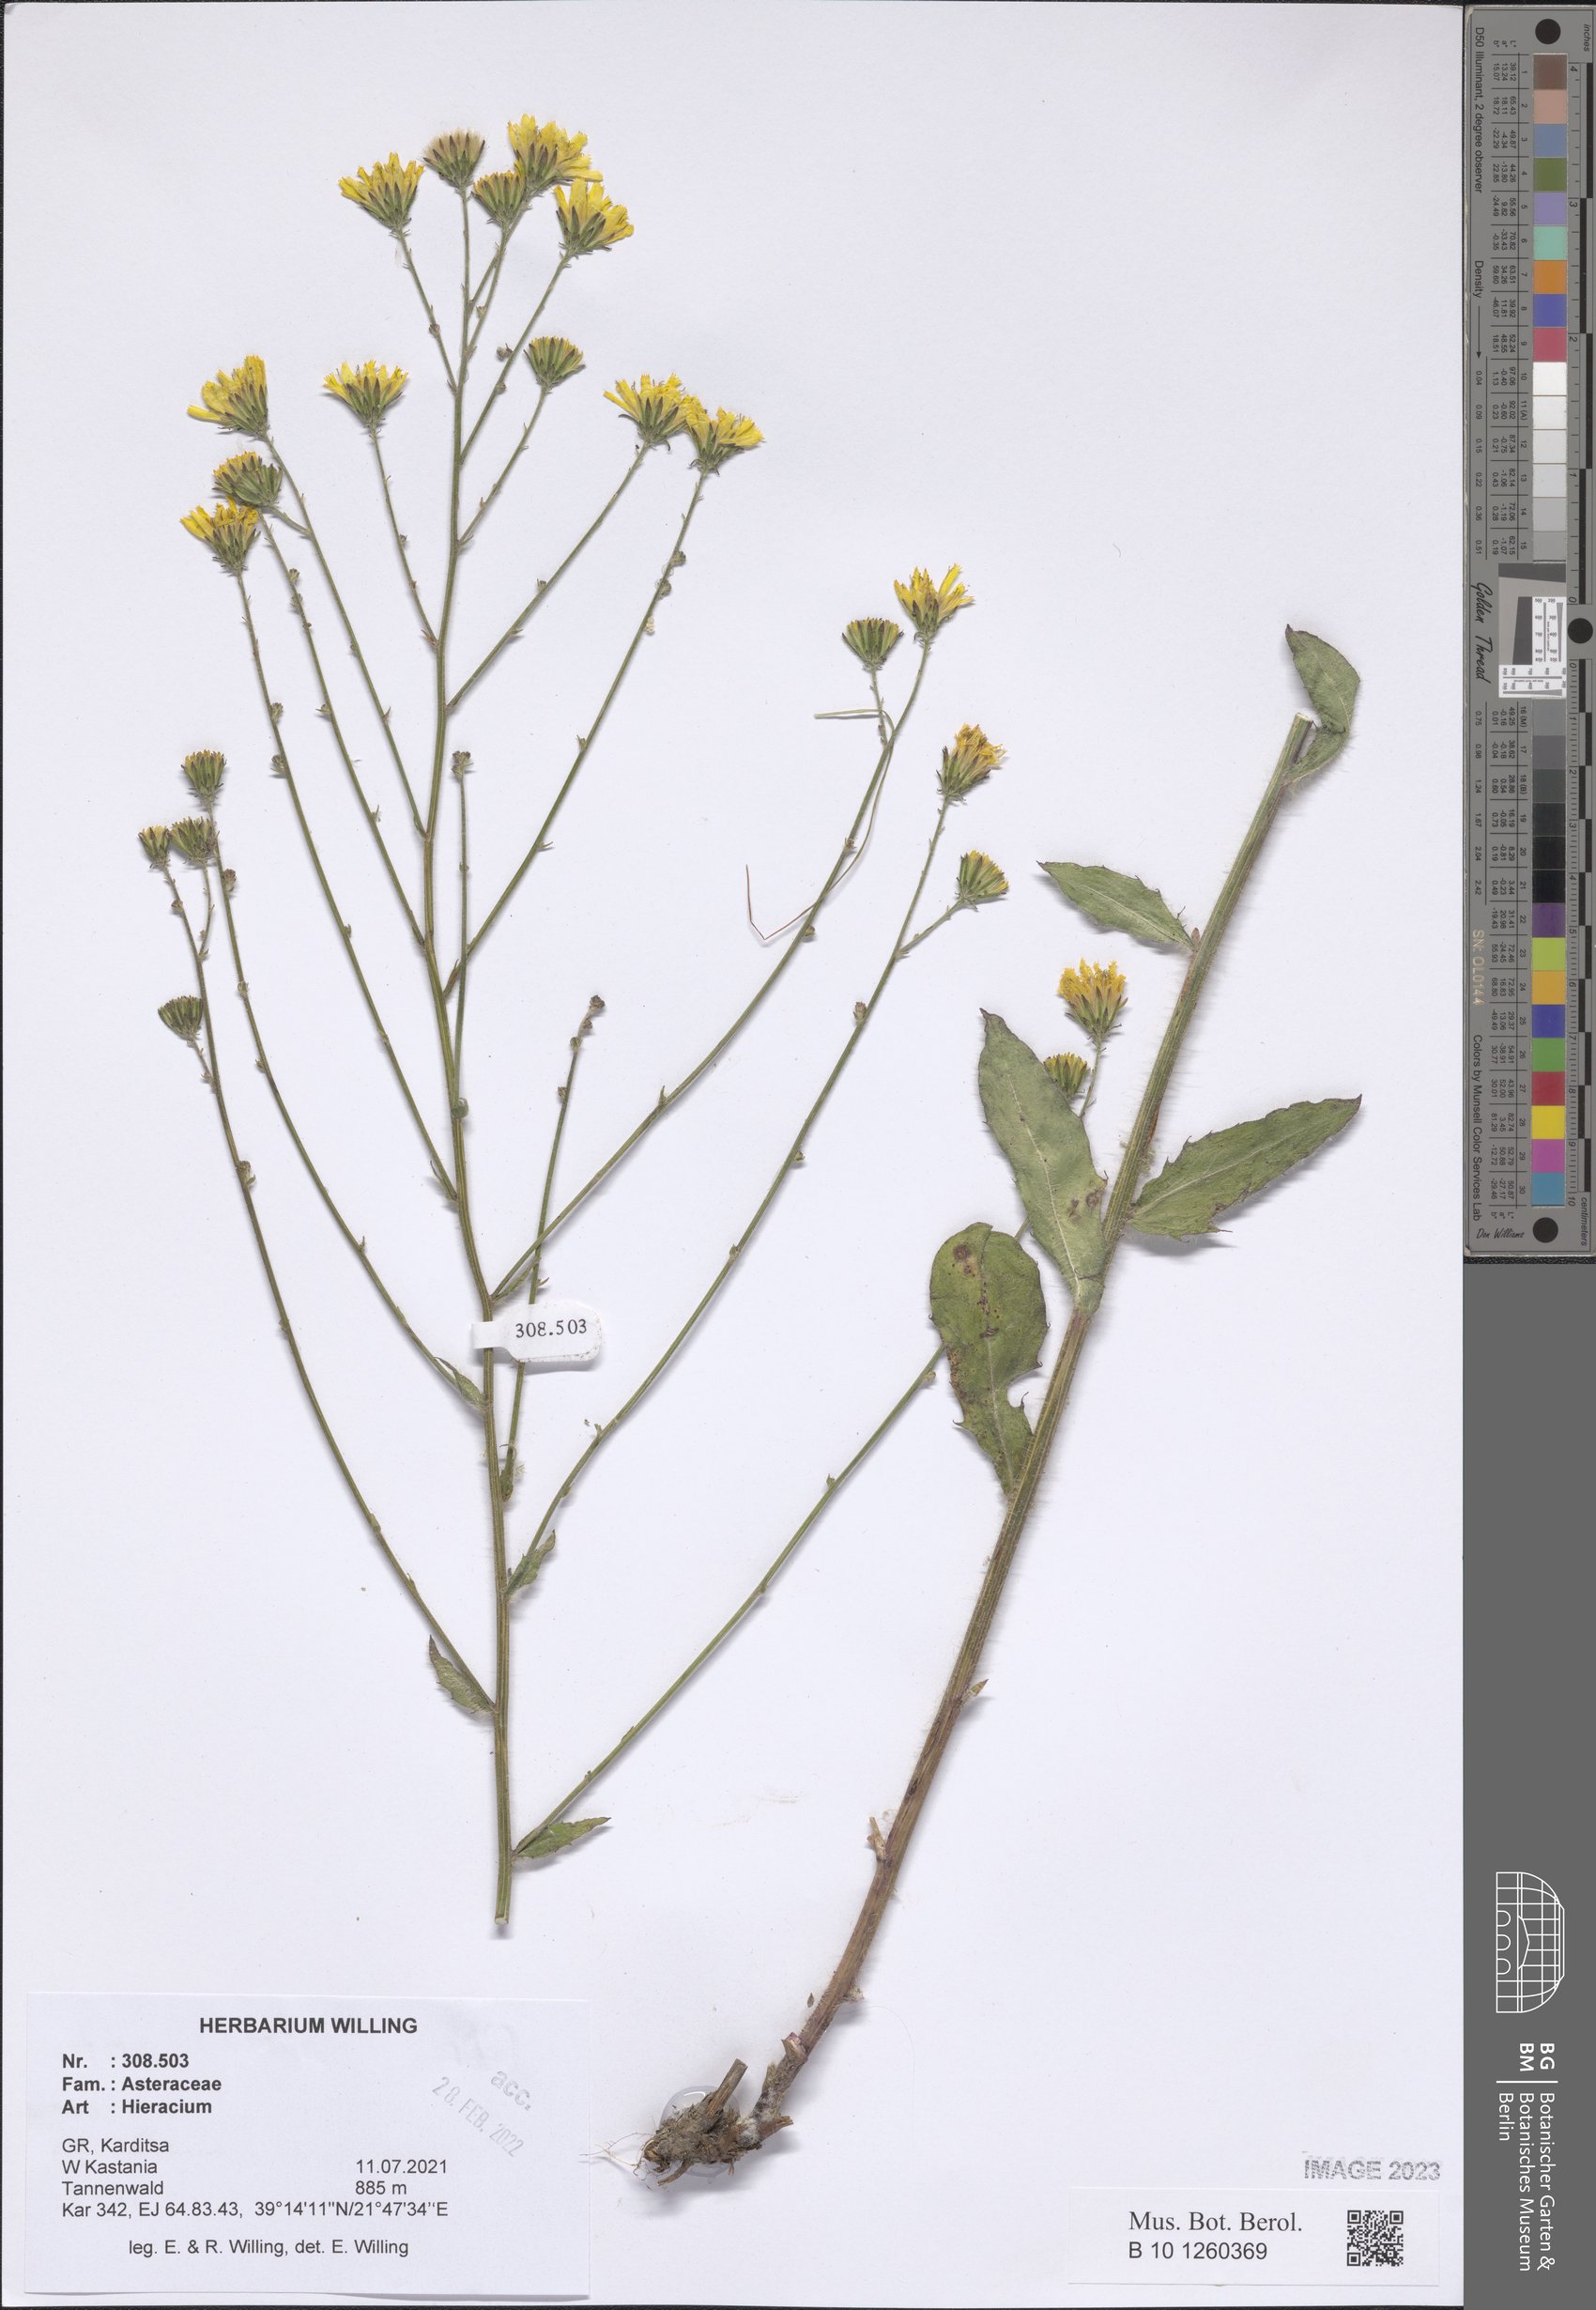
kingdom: Plantae
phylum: Tracheophyta
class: Magnoliopsida
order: Asterales
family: Asteraceae
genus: Hieracium
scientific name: Hieracium
